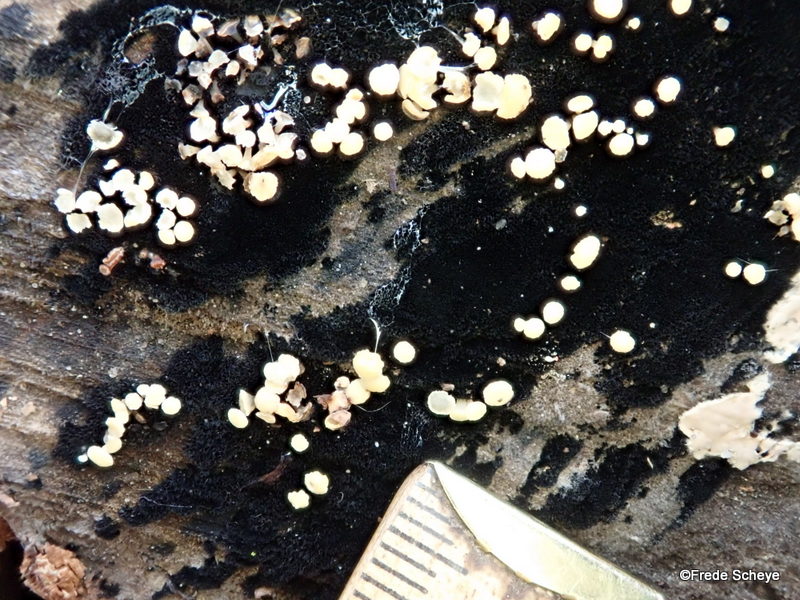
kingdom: Fungi
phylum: Ascomycota
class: Leotiomycetes
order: Helotiales
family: Helotiaceae
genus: Bispora
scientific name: Bispora pallescens
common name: måtte-snitskive
